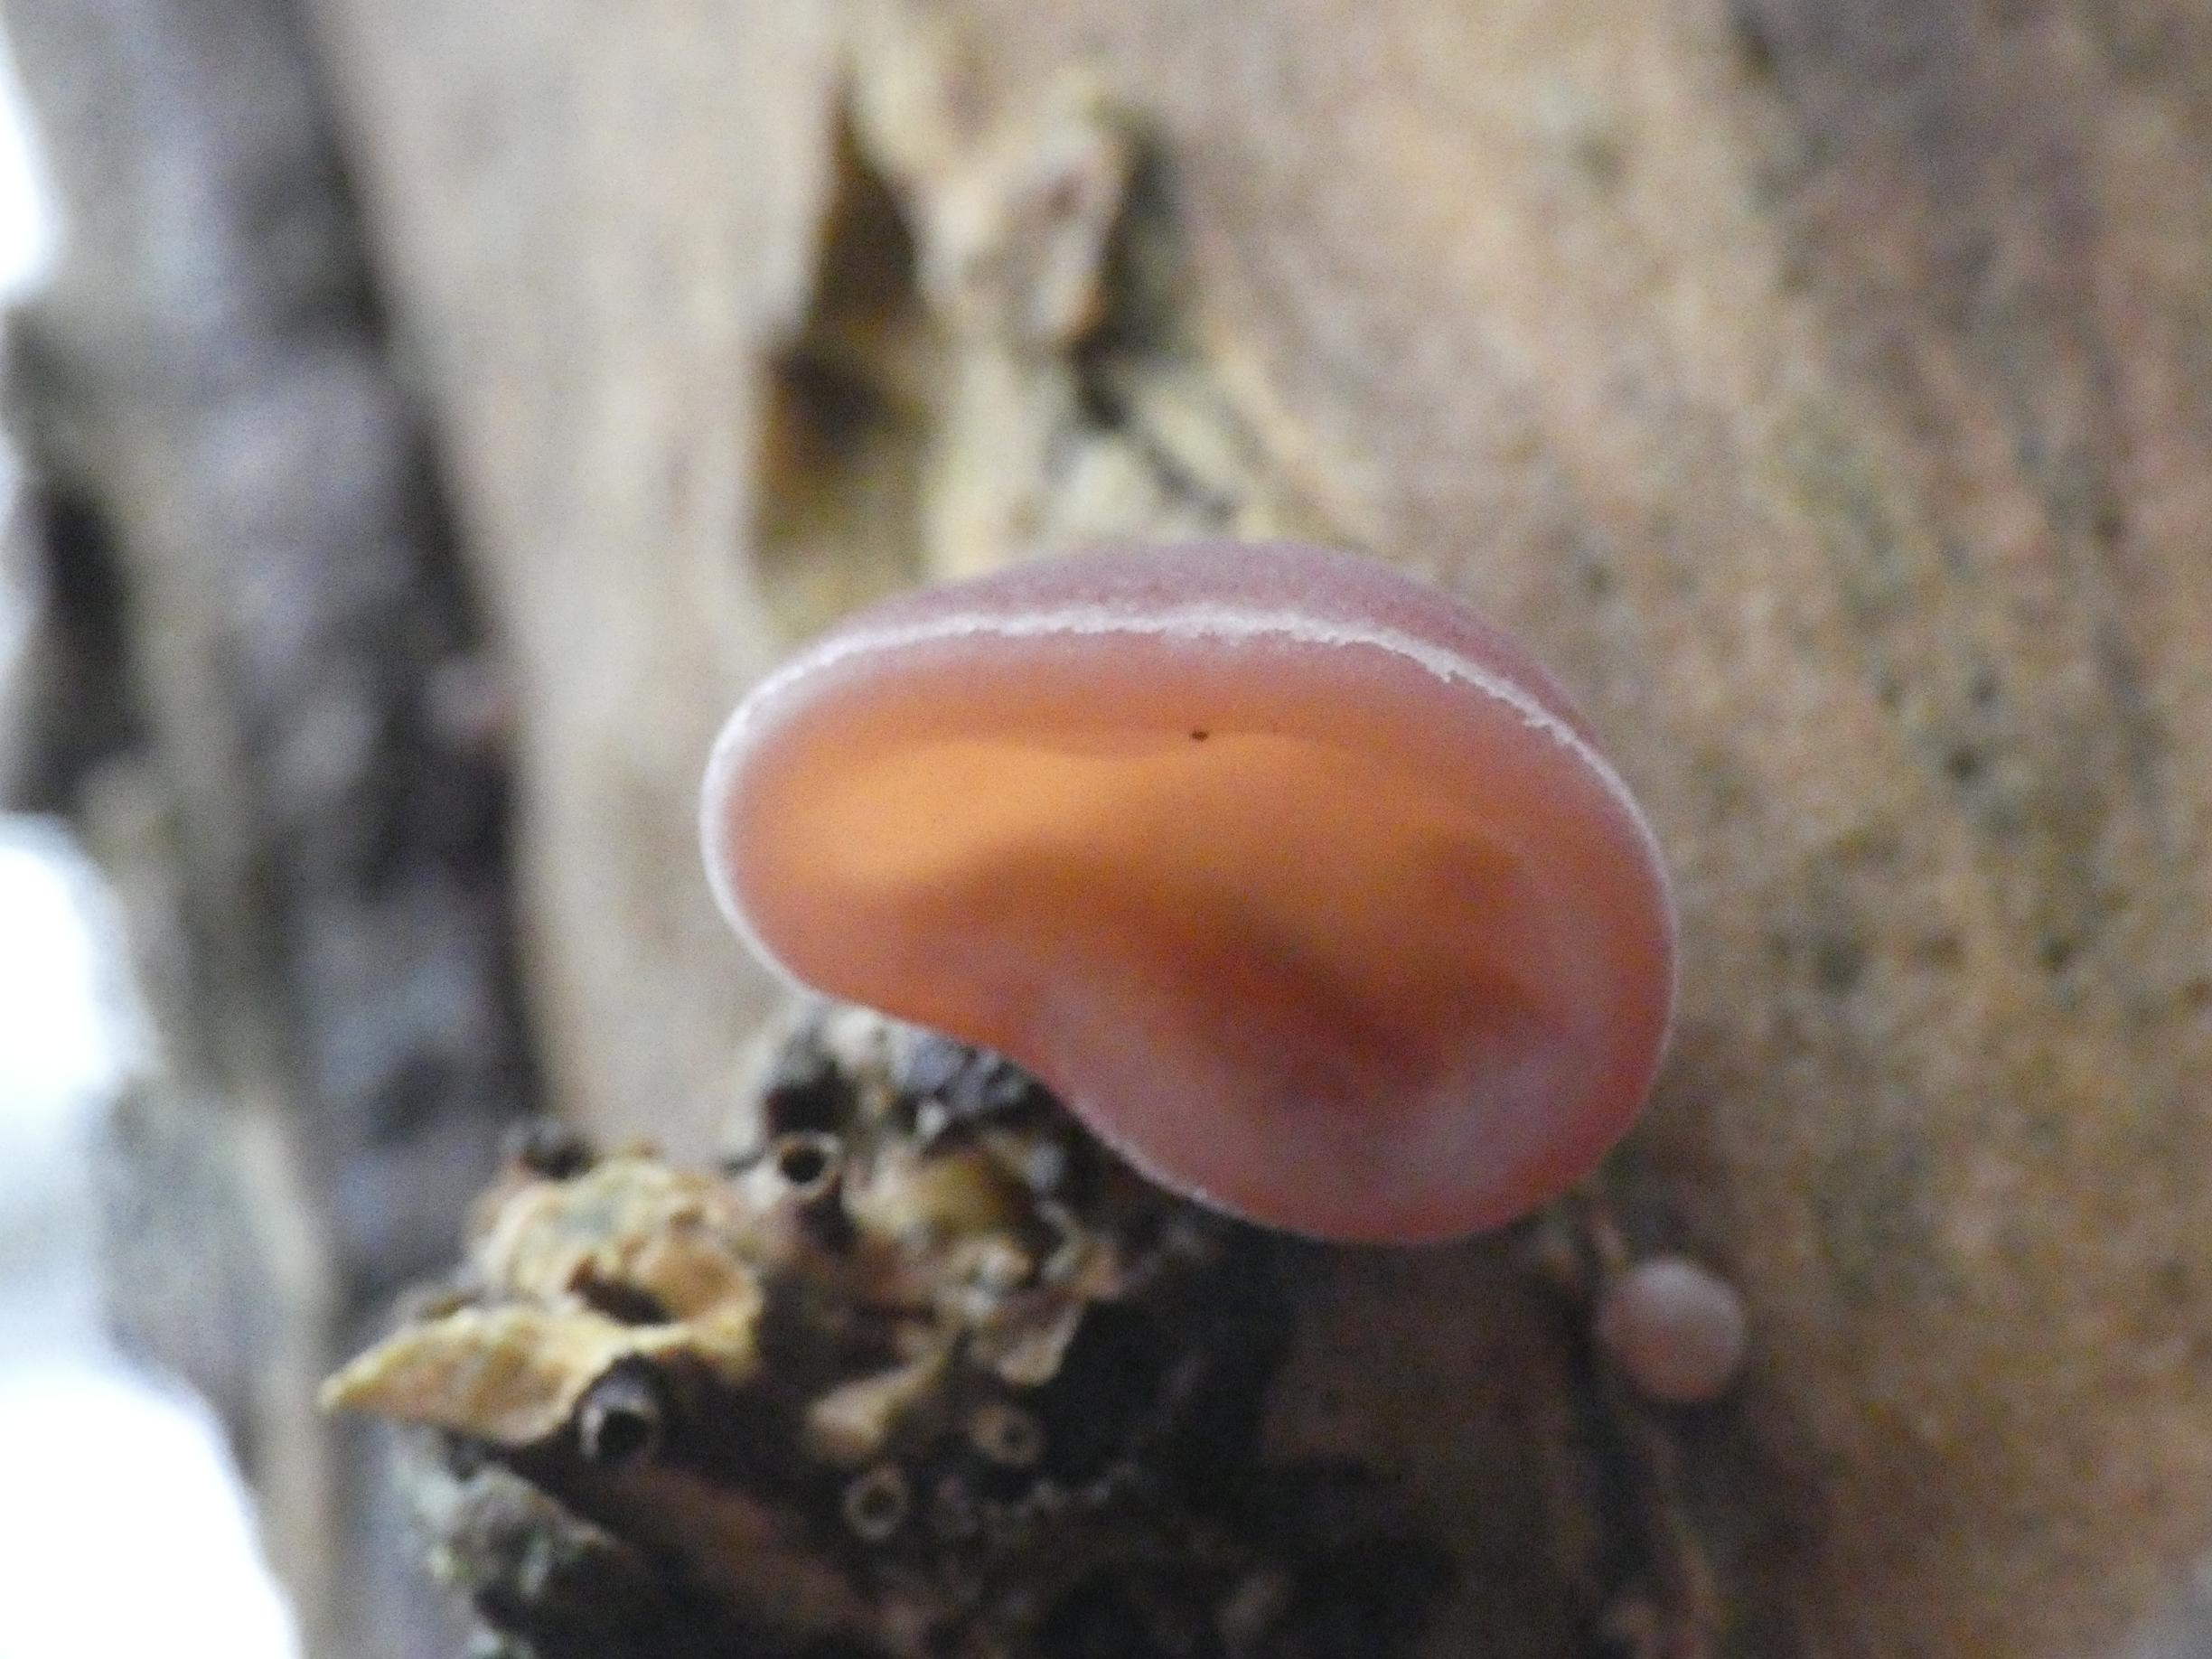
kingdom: Fungi
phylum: Basidiomycota
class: Agaricomycetes
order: Auriculariales
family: Auriculariaceae
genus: Auricularia
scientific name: Auricularia auricula-judae
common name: Almindelig judasøre
